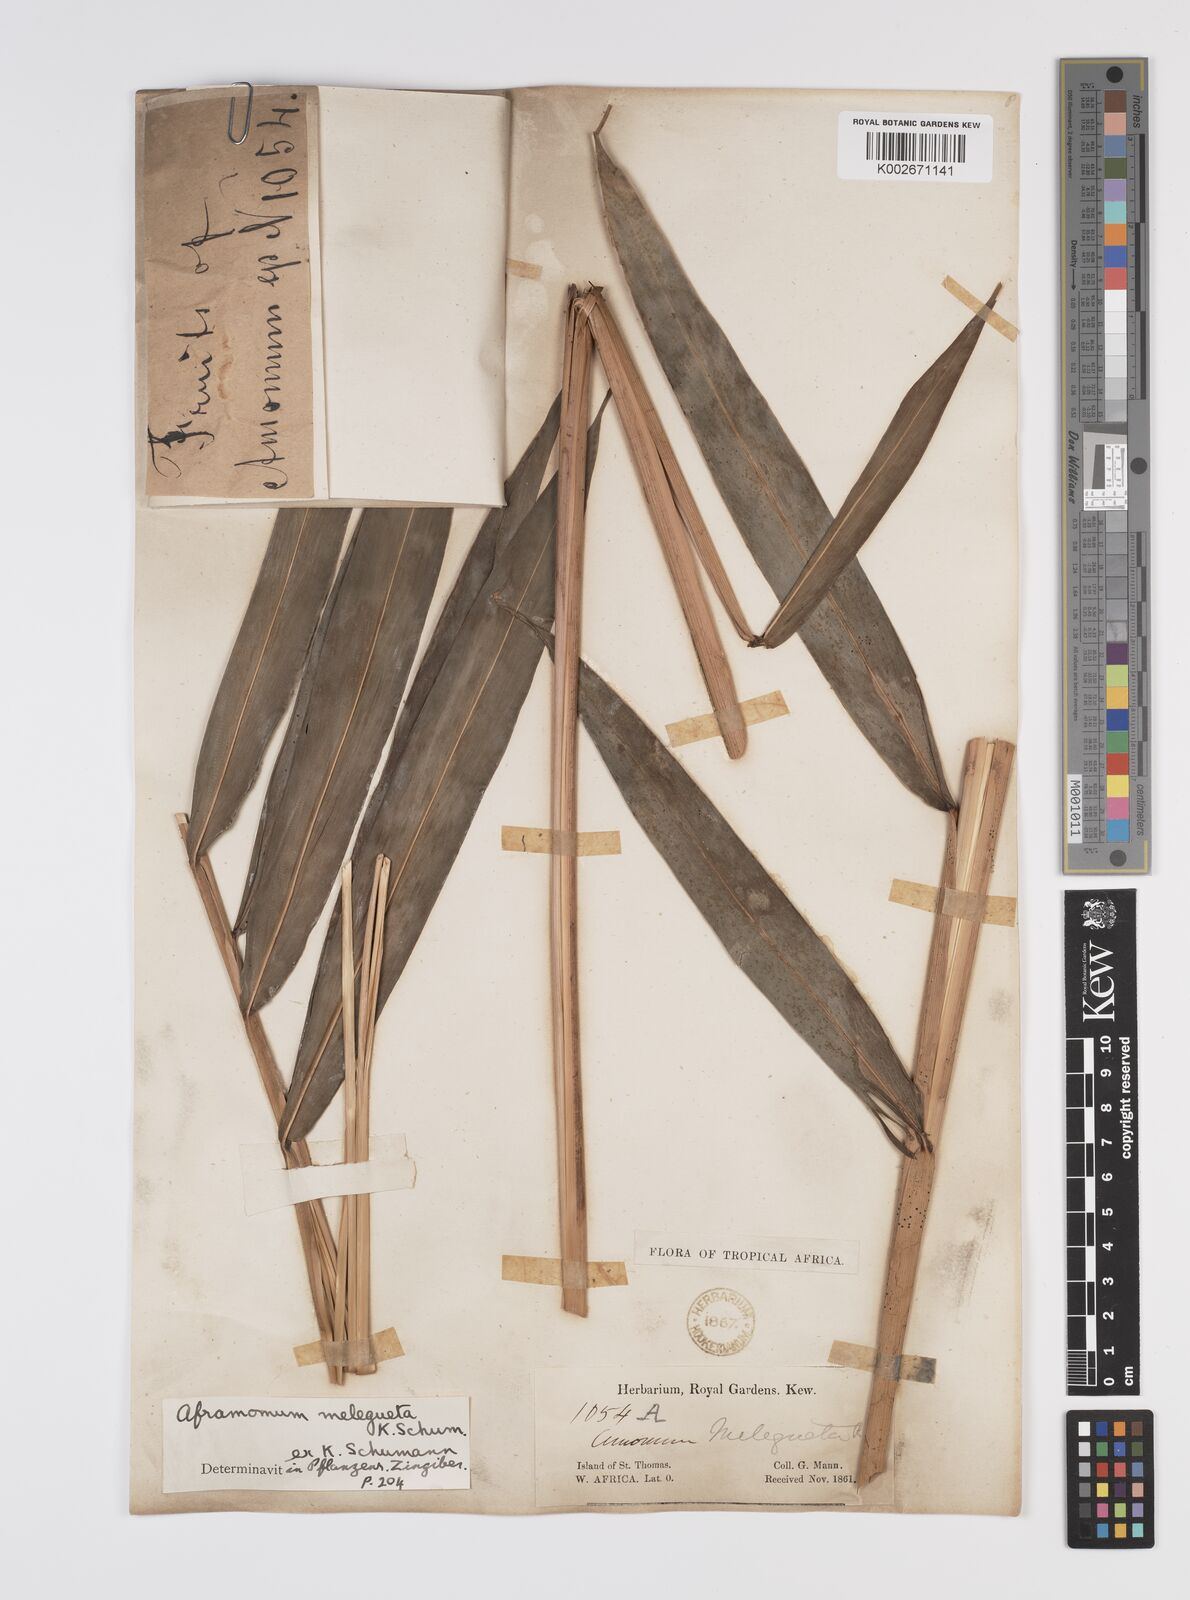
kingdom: Plantae
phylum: Tracheophyta
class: Liliopsida
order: Zingiberales
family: Zingiberaceae
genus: Aframomum
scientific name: Aframomum melegueta
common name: Grains of paradise
